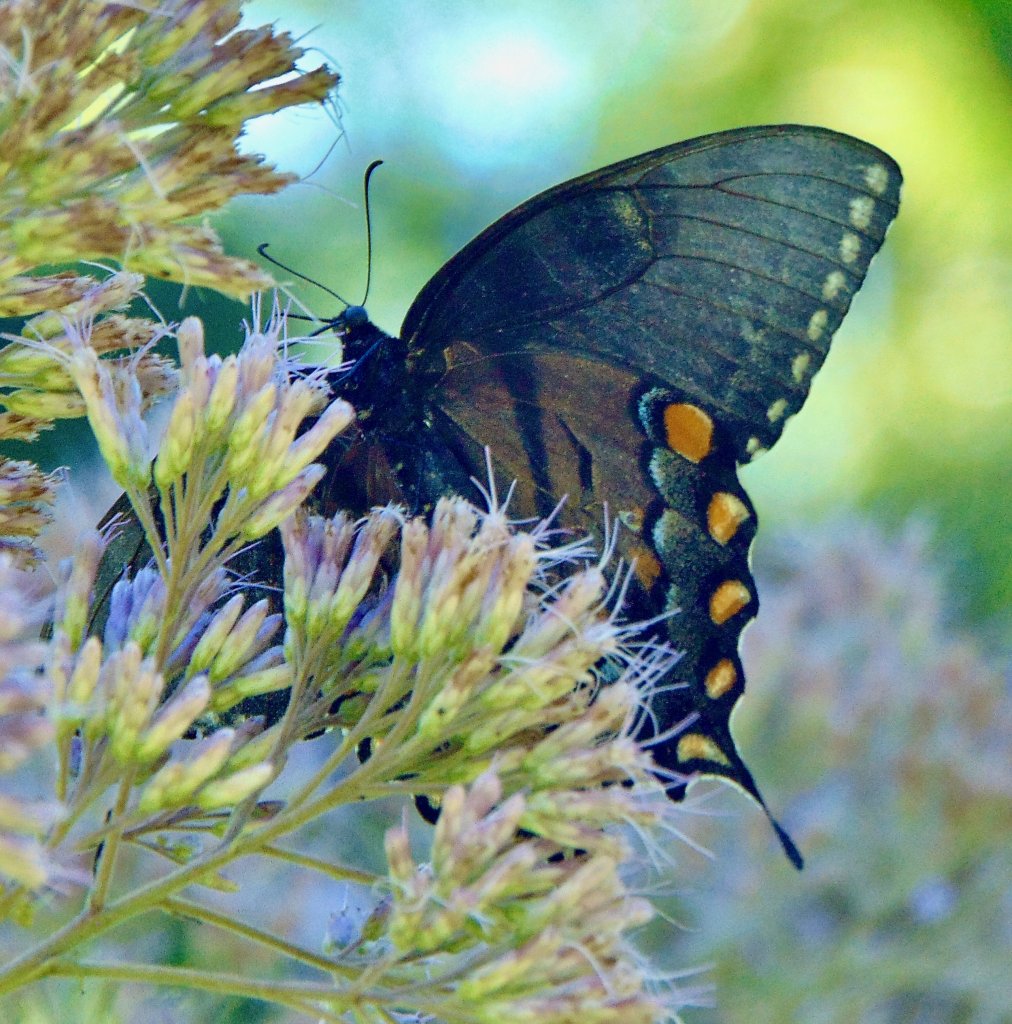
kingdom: Animalia
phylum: Arthropoda
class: Insecta
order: Lepidoptera
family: Papilionidae
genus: Pterourus
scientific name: Pterourus glaucus
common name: Eastern Tiger Swallowtail
